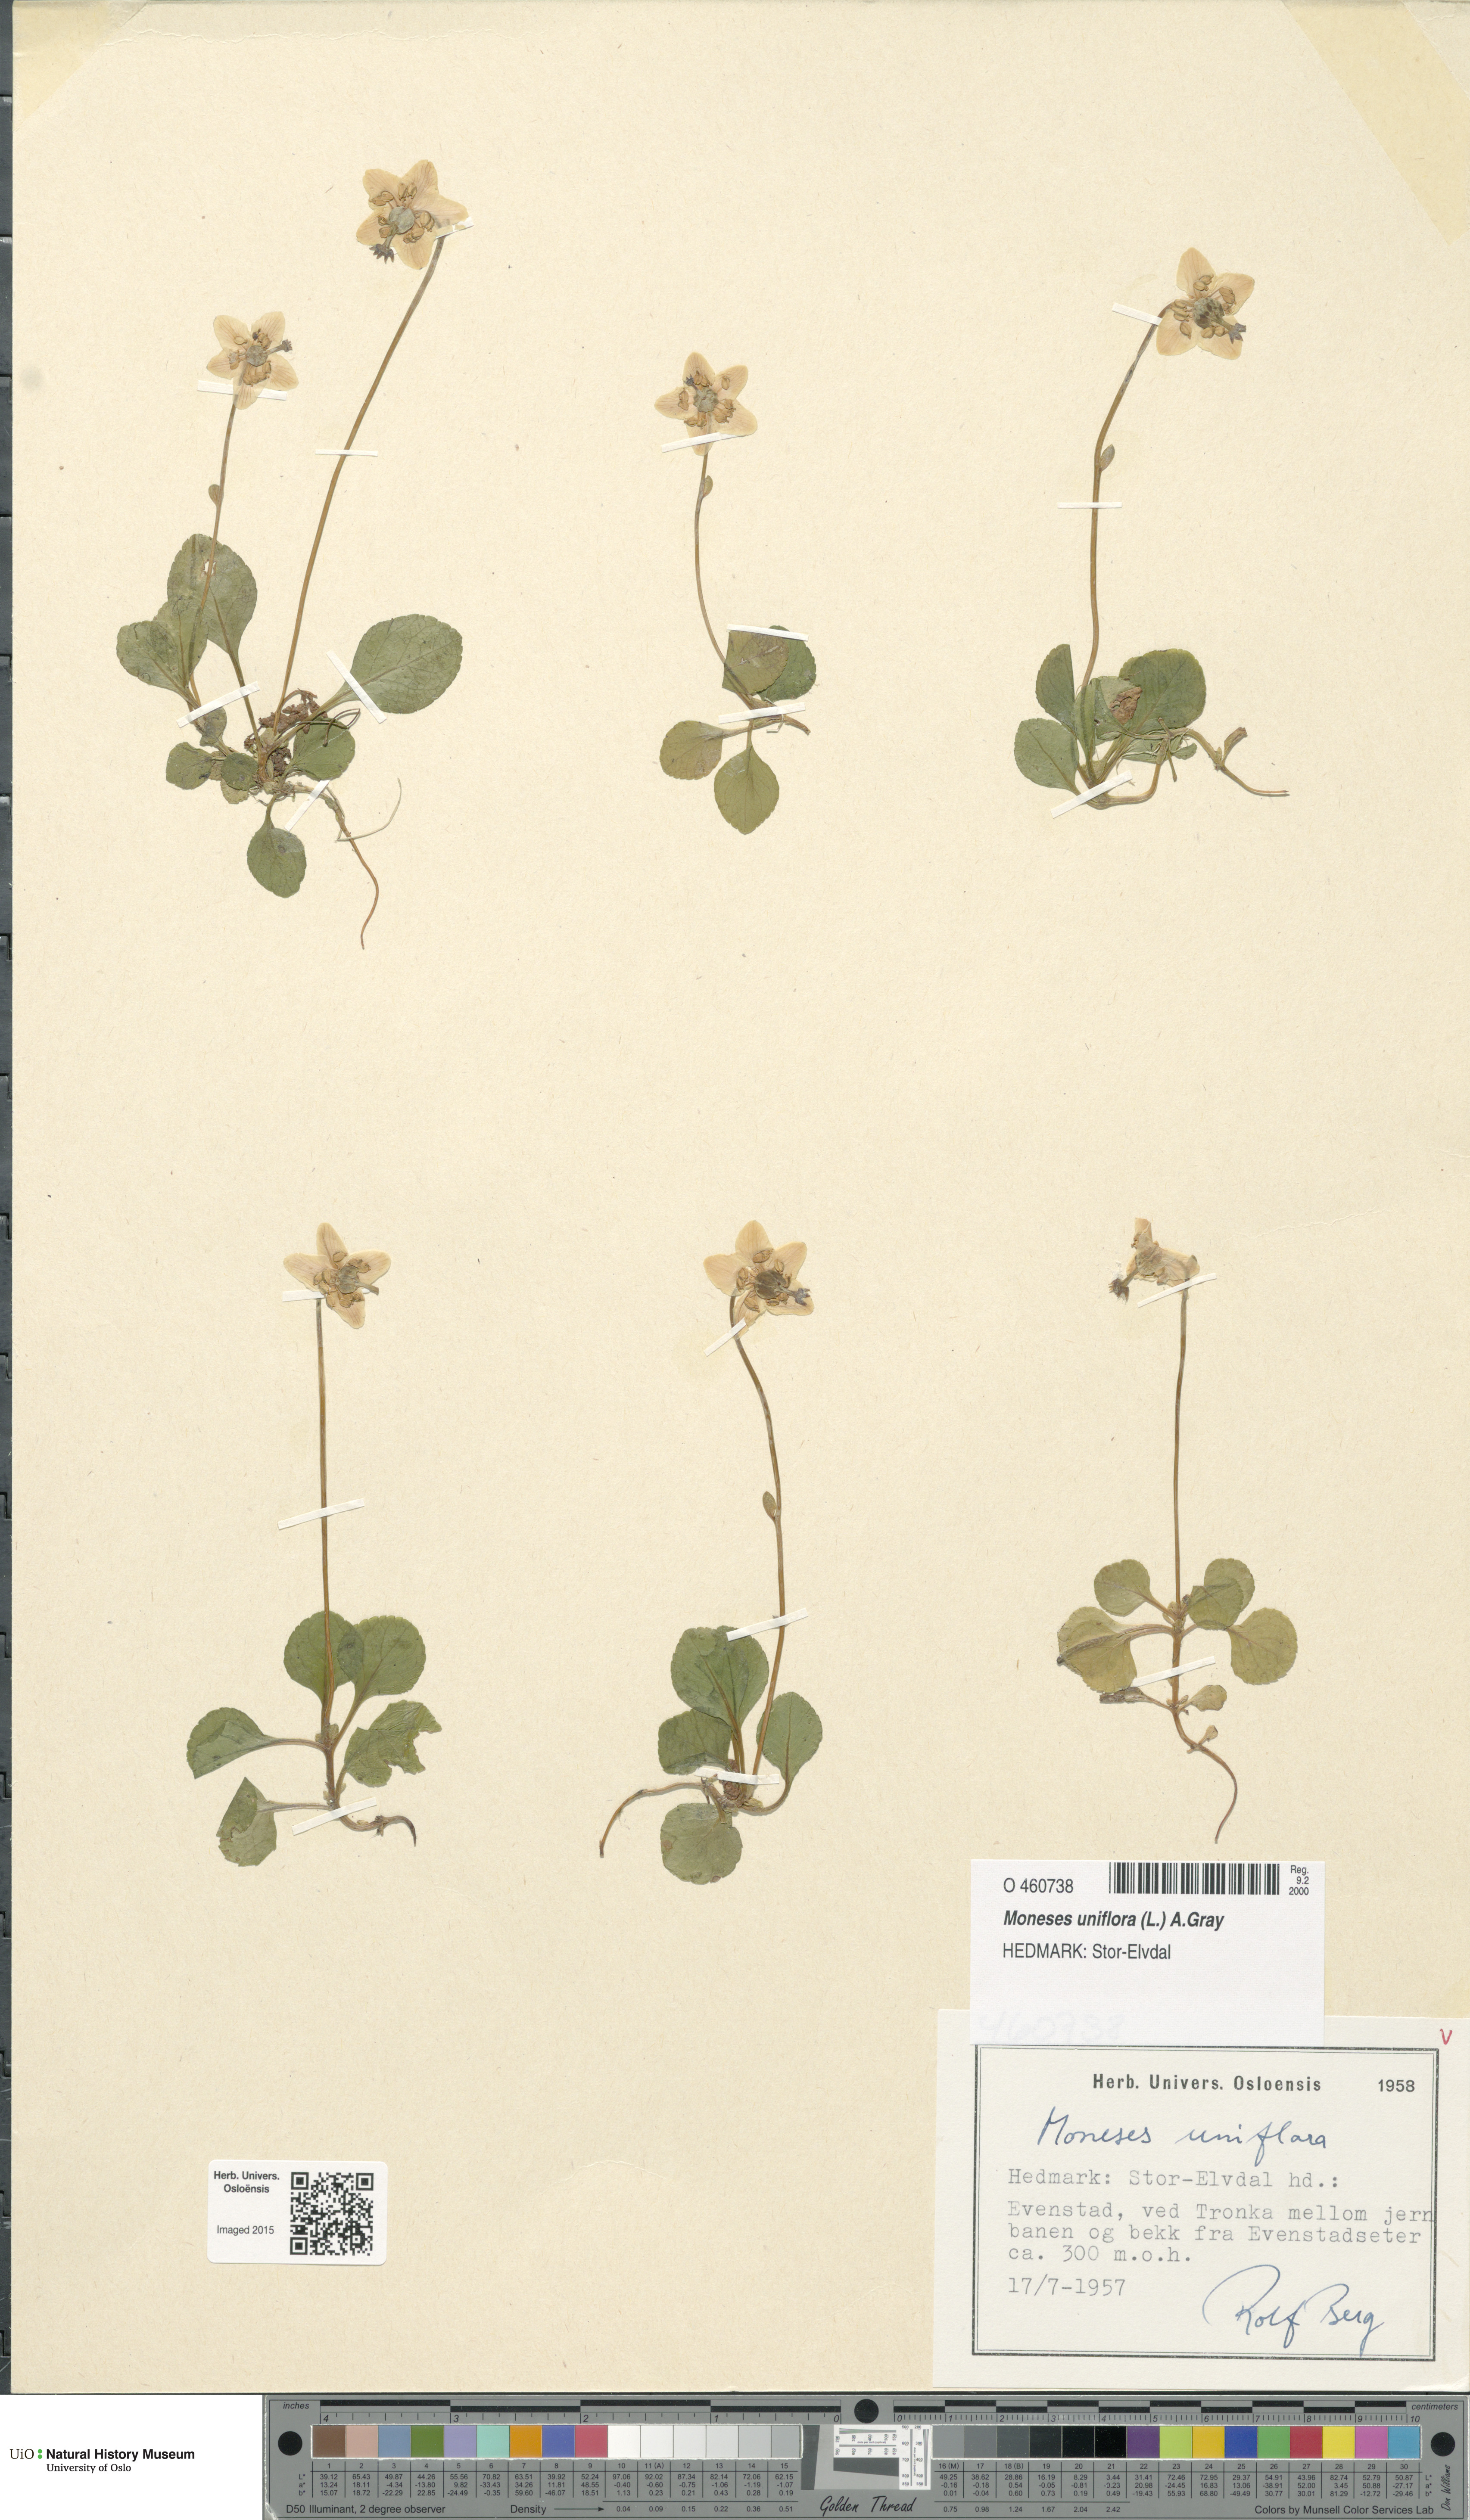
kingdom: Plantae
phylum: Tracheophyta
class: Magnoliopsida
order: Ericales
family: Ericaceae
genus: Moneses
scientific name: Moneses uniflora
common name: One-flowered wintergreen
